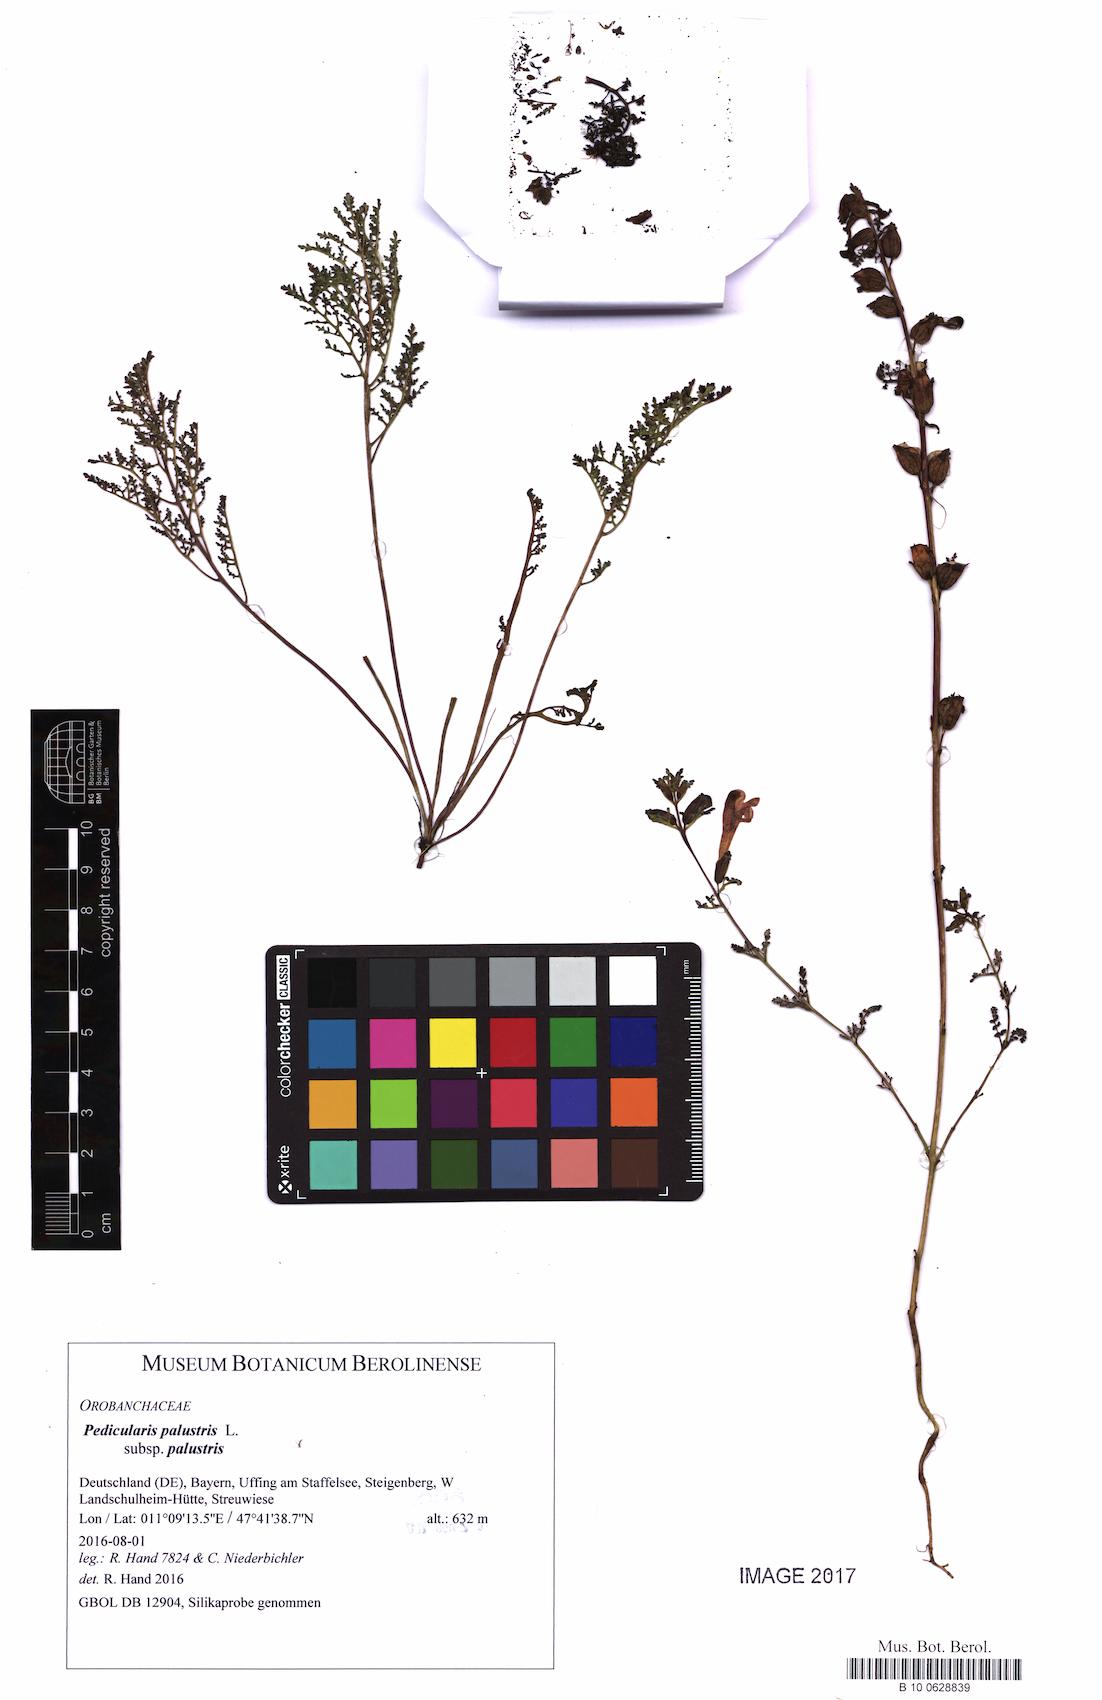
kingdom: Plantae
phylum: Tracheophyta
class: Magnoliopsida
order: Lamiales
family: Orobanchaceae
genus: Pedicularis
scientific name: Pedicularis palustris
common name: Marsh lousewort
